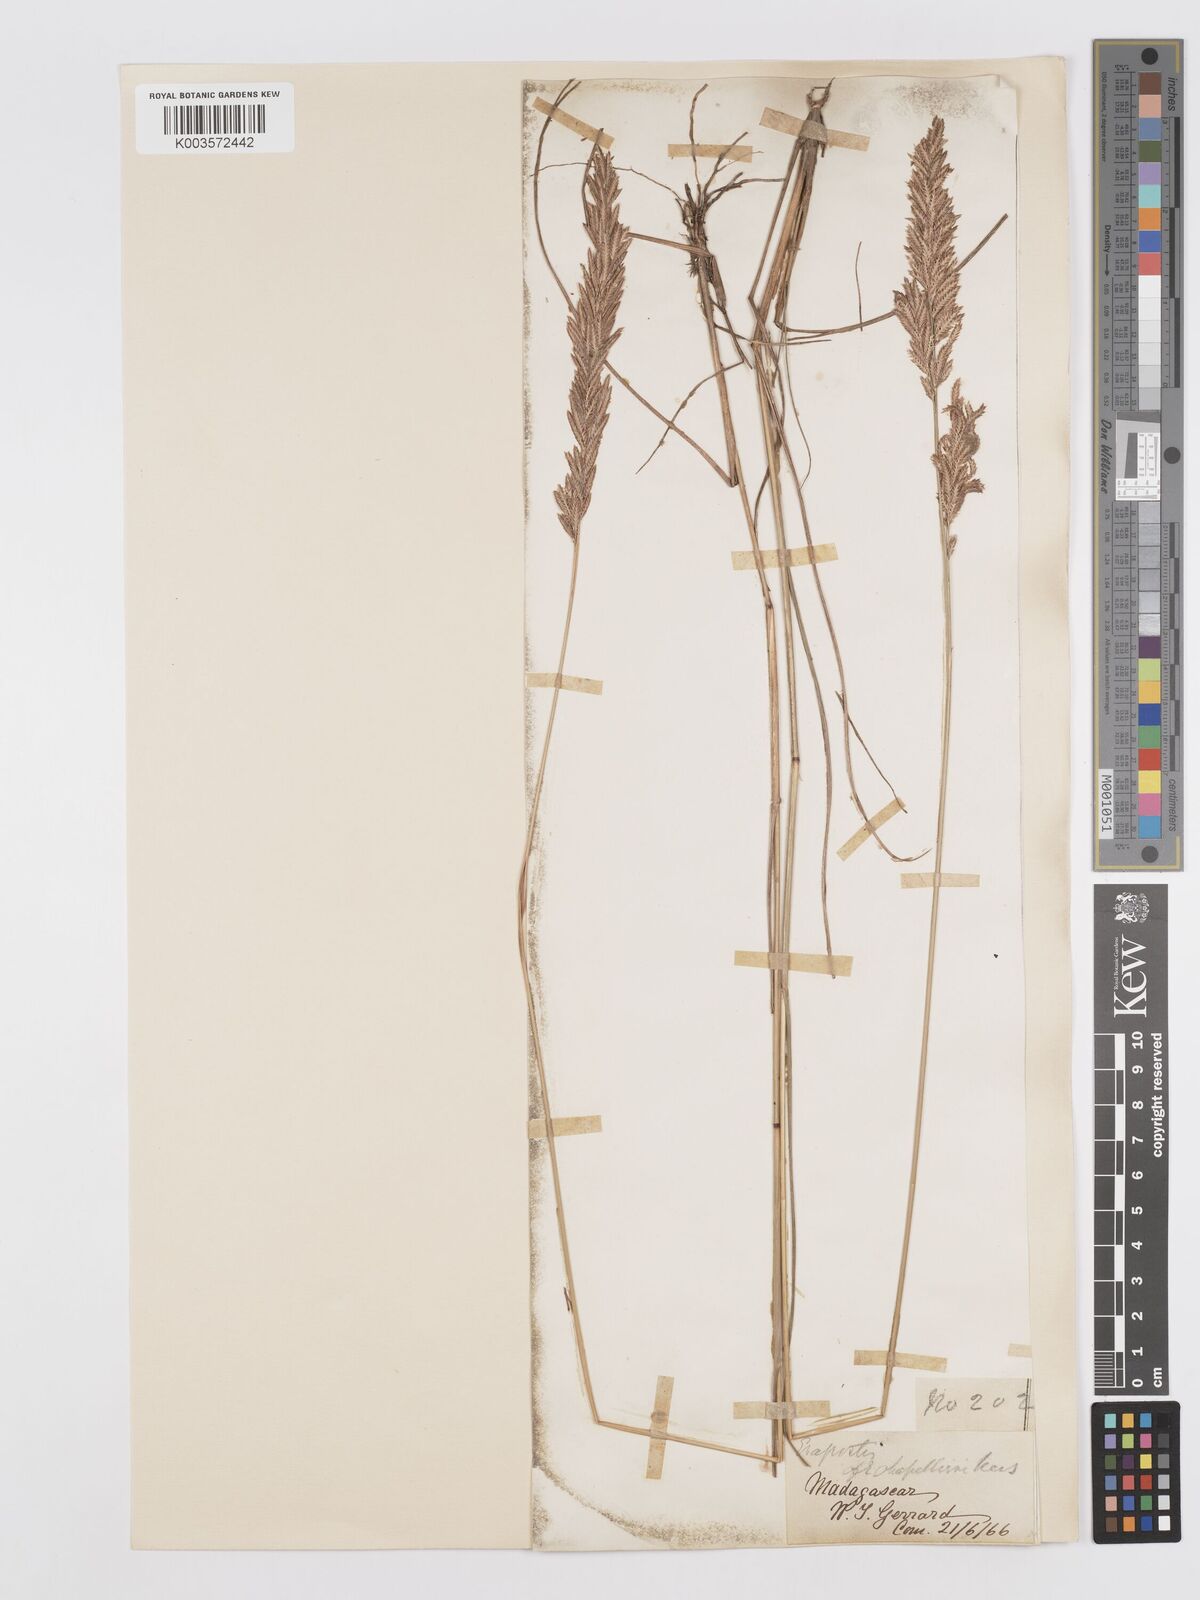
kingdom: Plantae
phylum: Tracheophyta
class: Liliopsida
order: Poales
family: Poaceae
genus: Eragrostis
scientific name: Eragrostis chapelieri
